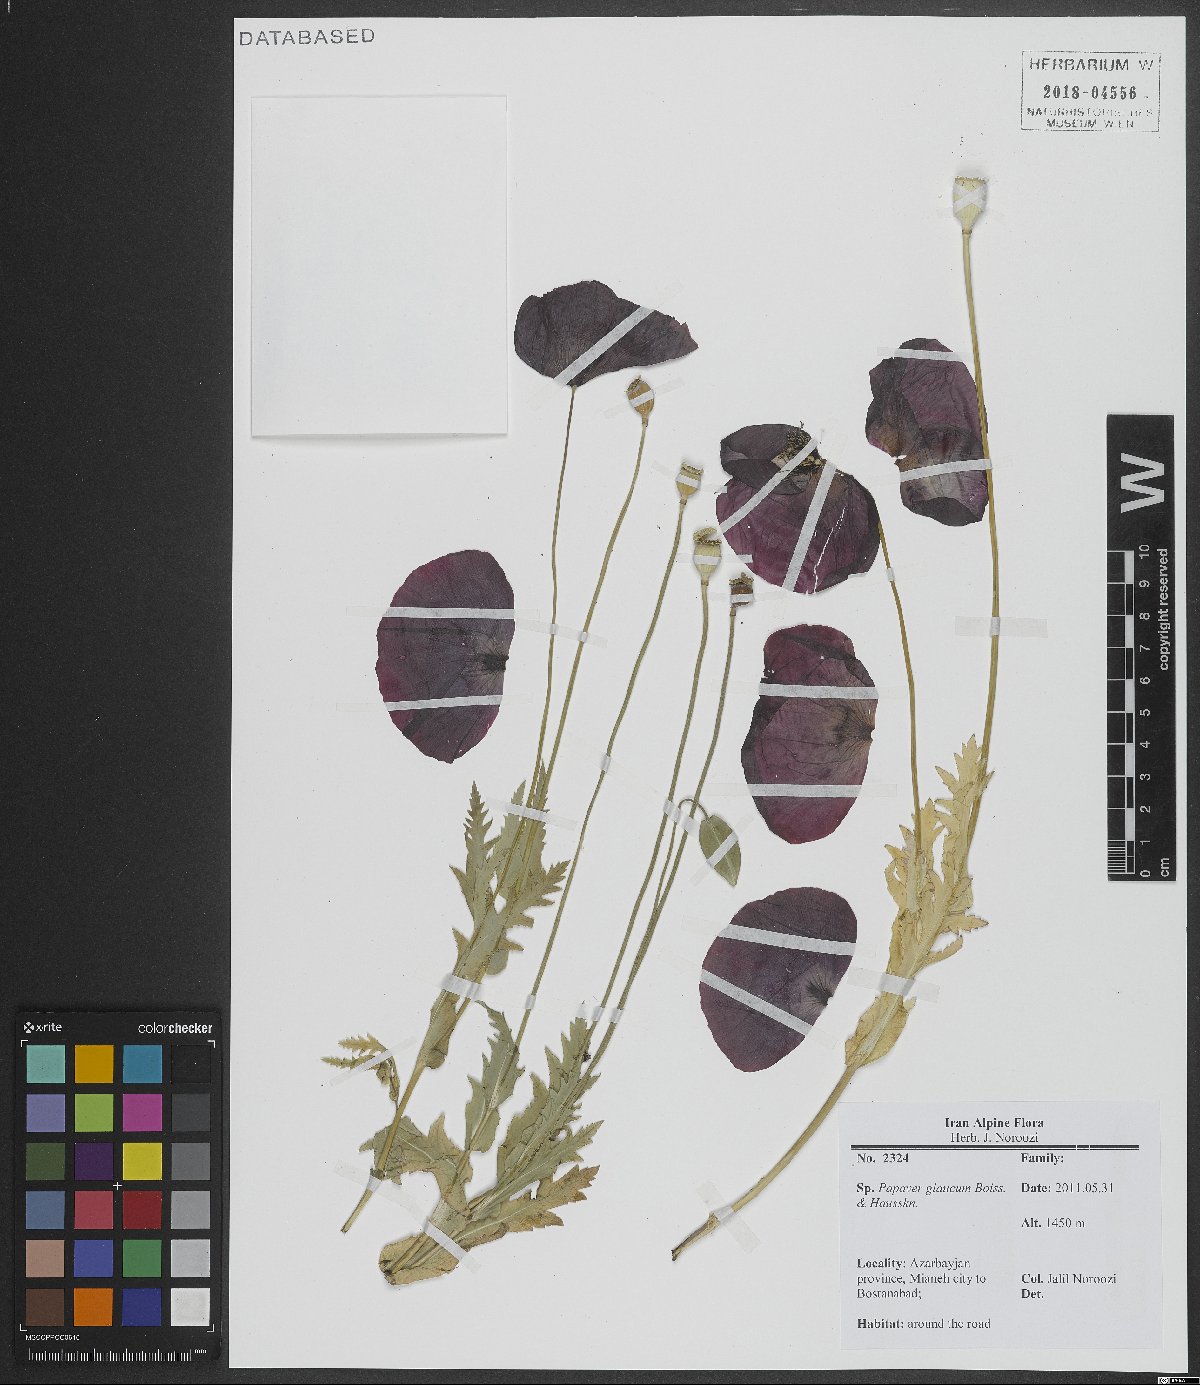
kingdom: Plantae
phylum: Tracheophyta
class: Magnoliopsida
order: Ranunculales
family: Papaveraceae
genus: Papaver
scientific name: Papaver glaucum
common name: Tulip poppy
